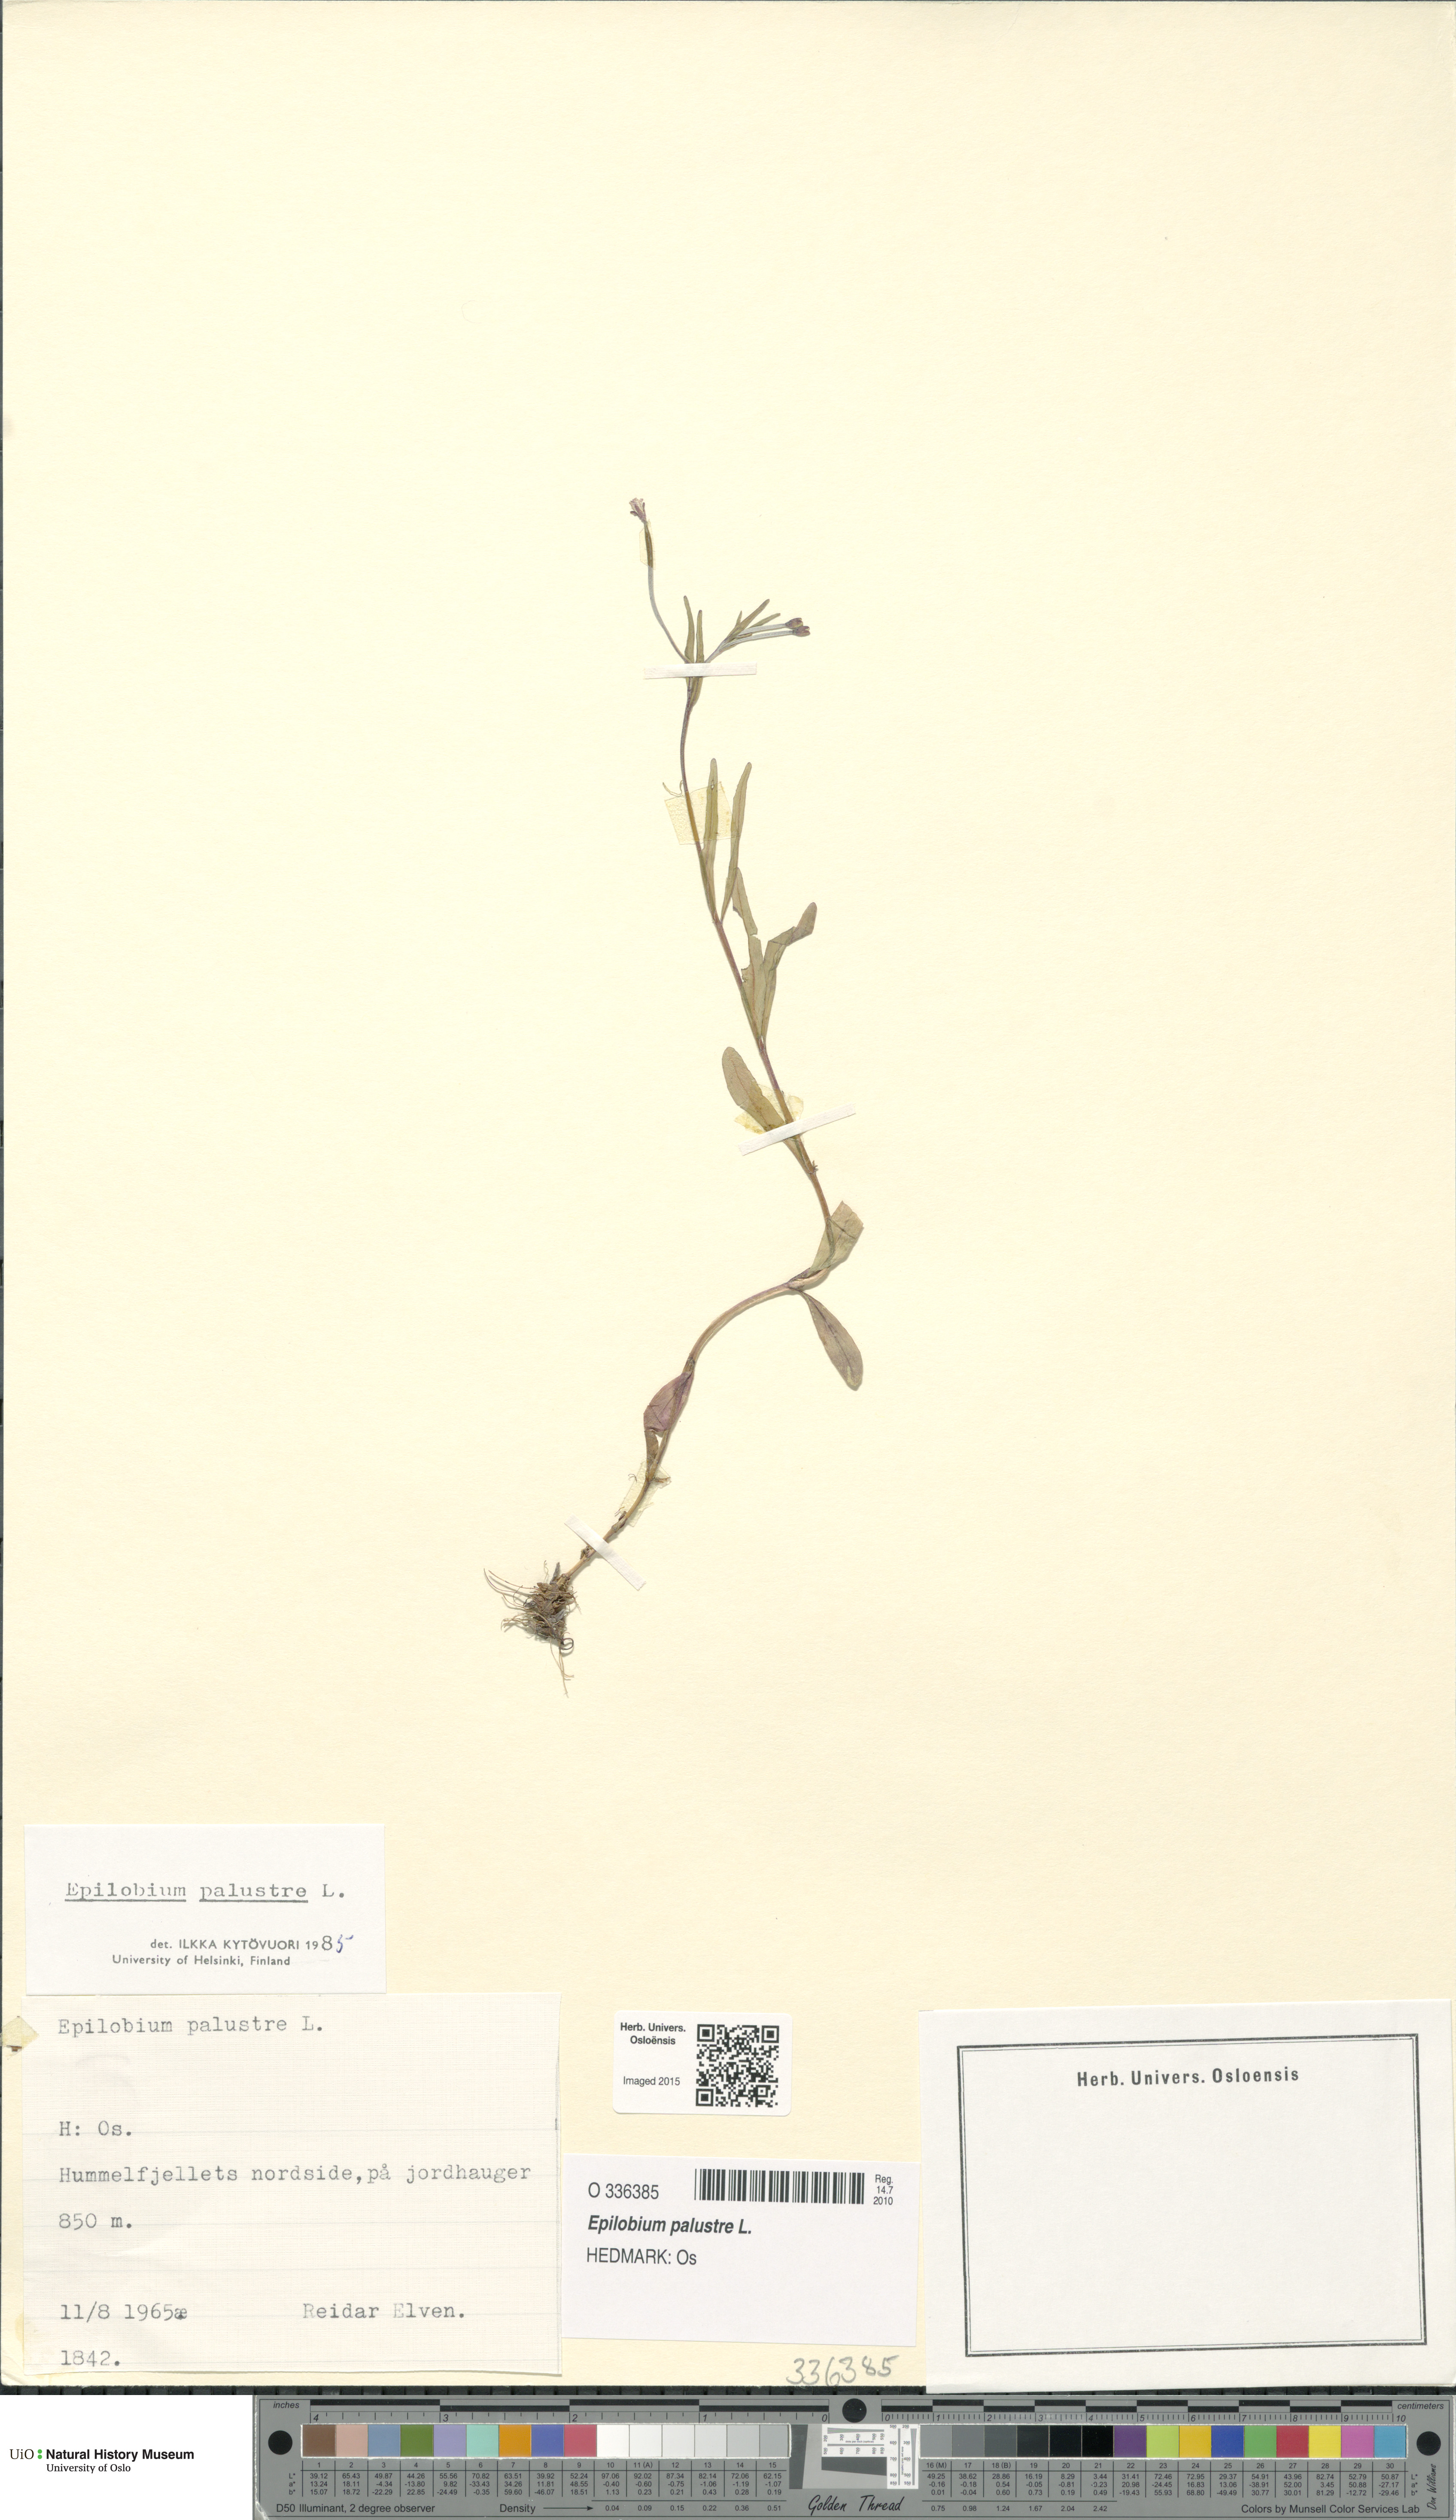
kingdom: Plantae
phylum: Tracheophyta
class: Magnoliopsida
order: Myrtales
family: Onagraceae
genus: Epilobium
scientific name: Epilobium palustre
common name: Marsh willowherb
